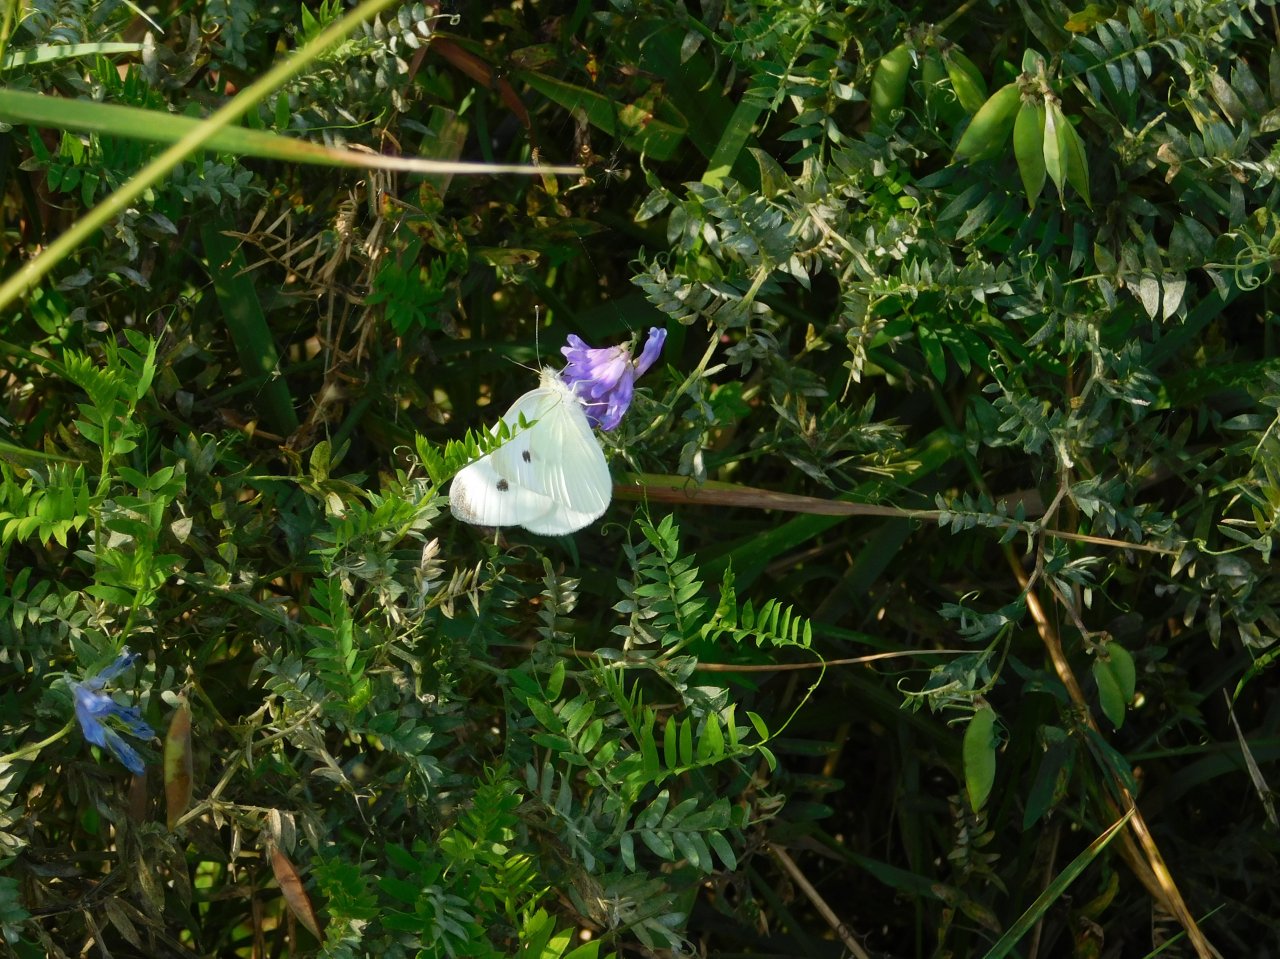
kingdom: Animalia
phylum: Arthropoda
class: Insecta
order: Lepidoptera
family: Pieridae
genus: Pieris
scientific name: Pieris rapae
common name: Cabbage White
